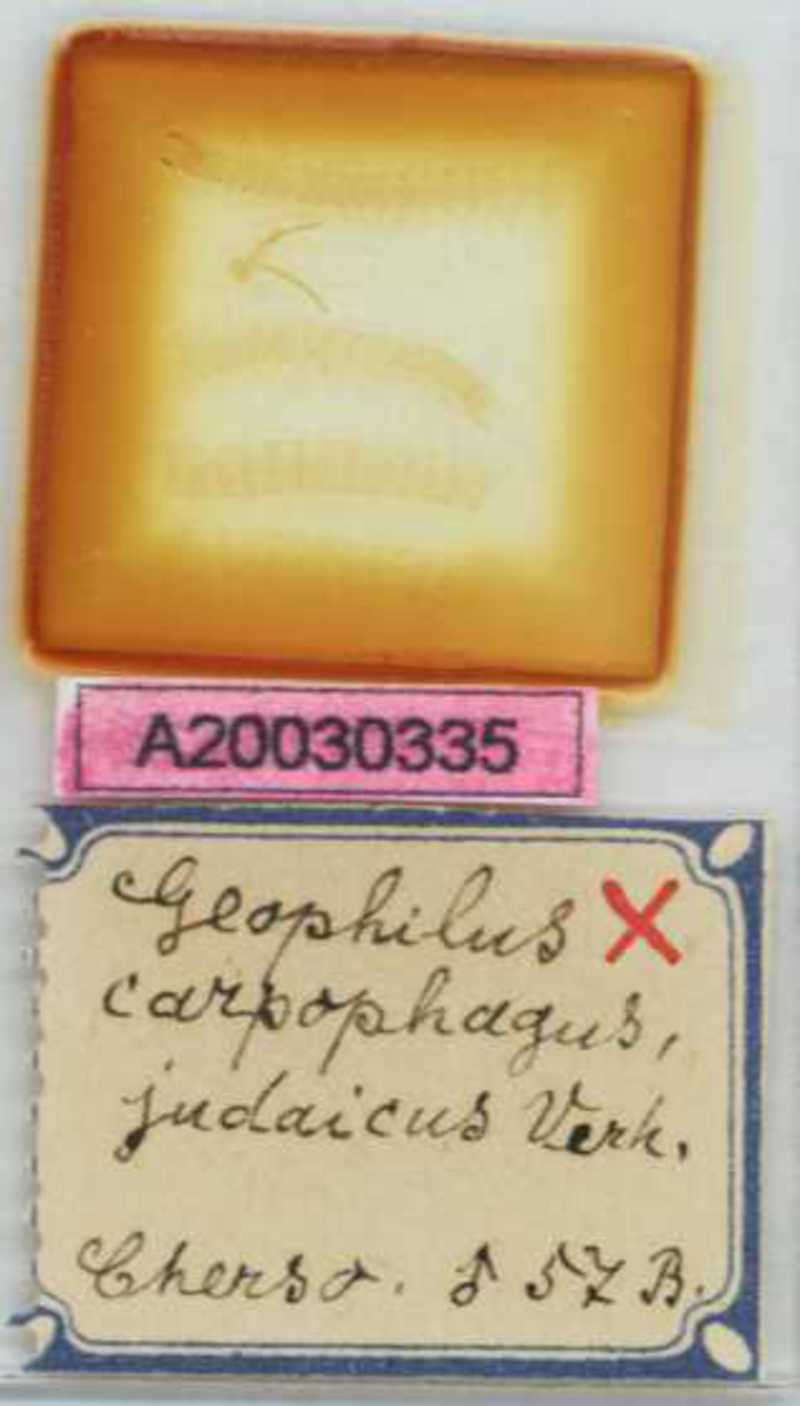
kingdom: Animalia
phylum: Arthropoda
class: Chilopoda
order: Geophilomorpha
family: Geophilidae
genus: Geophilus
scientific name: Geophilus carpophagus
